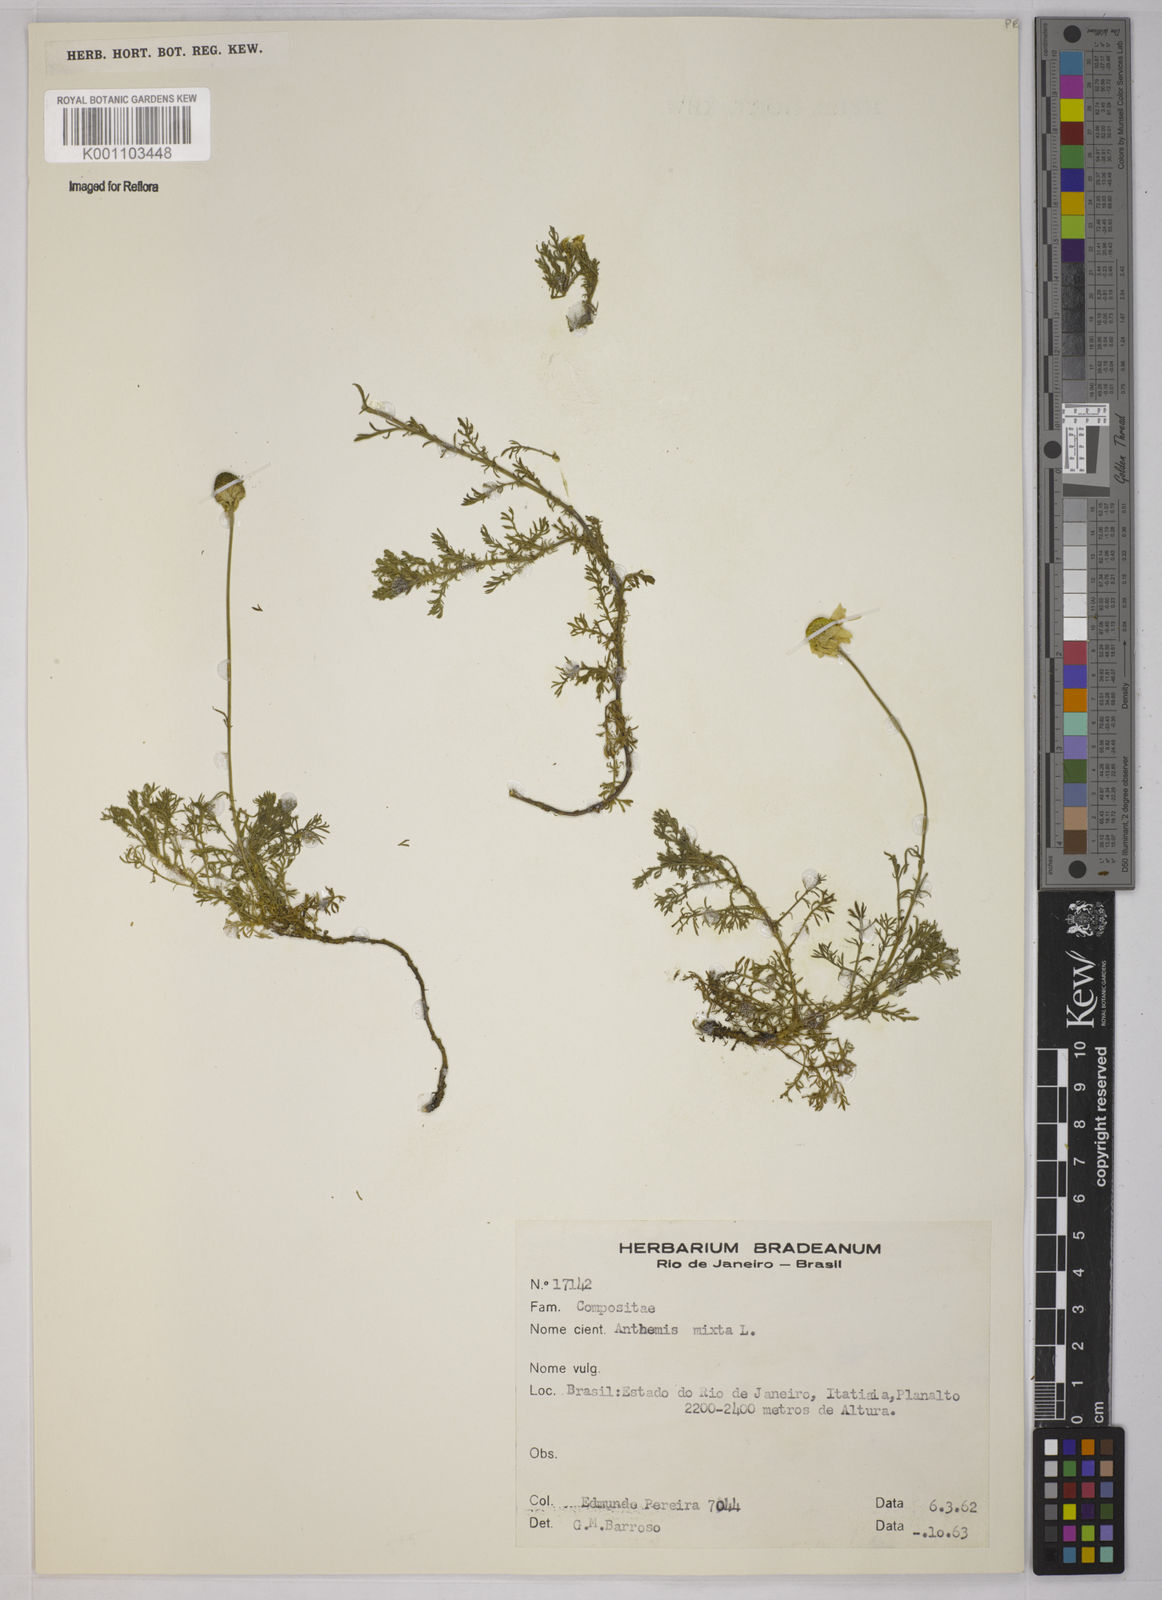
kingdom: Plantae
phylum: Tracheophyta
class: Magnoliopsida
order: Asterales
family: Asteraceae
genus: Cladanthus
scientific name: Cladanthus mixtus
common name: Weedy dogfennel
